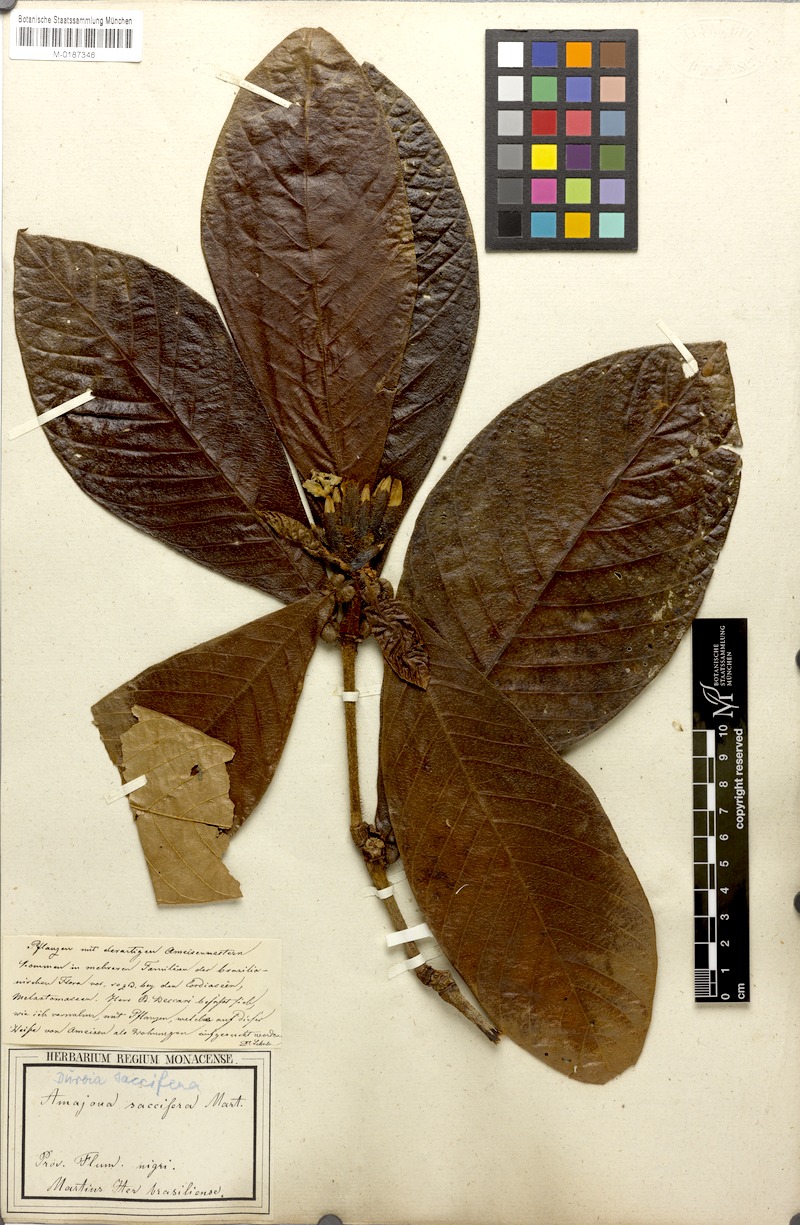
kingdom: Plantae
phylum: Tracheophyta
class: Magnoliopsida
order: Gentianales
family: Rubiaceae
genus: Duroia
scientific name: Duroia saccifera
